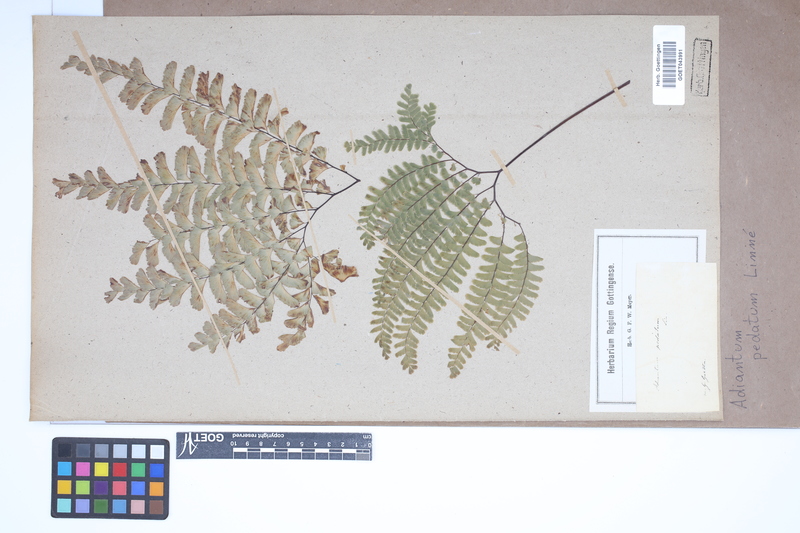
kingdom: Plantae
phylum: Tracheophyta
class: Polypodiopsida
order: Polypodiales
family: Pteridaceae
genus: Adiantum
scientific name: Adiantum pedatum
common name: Five-finger fern
